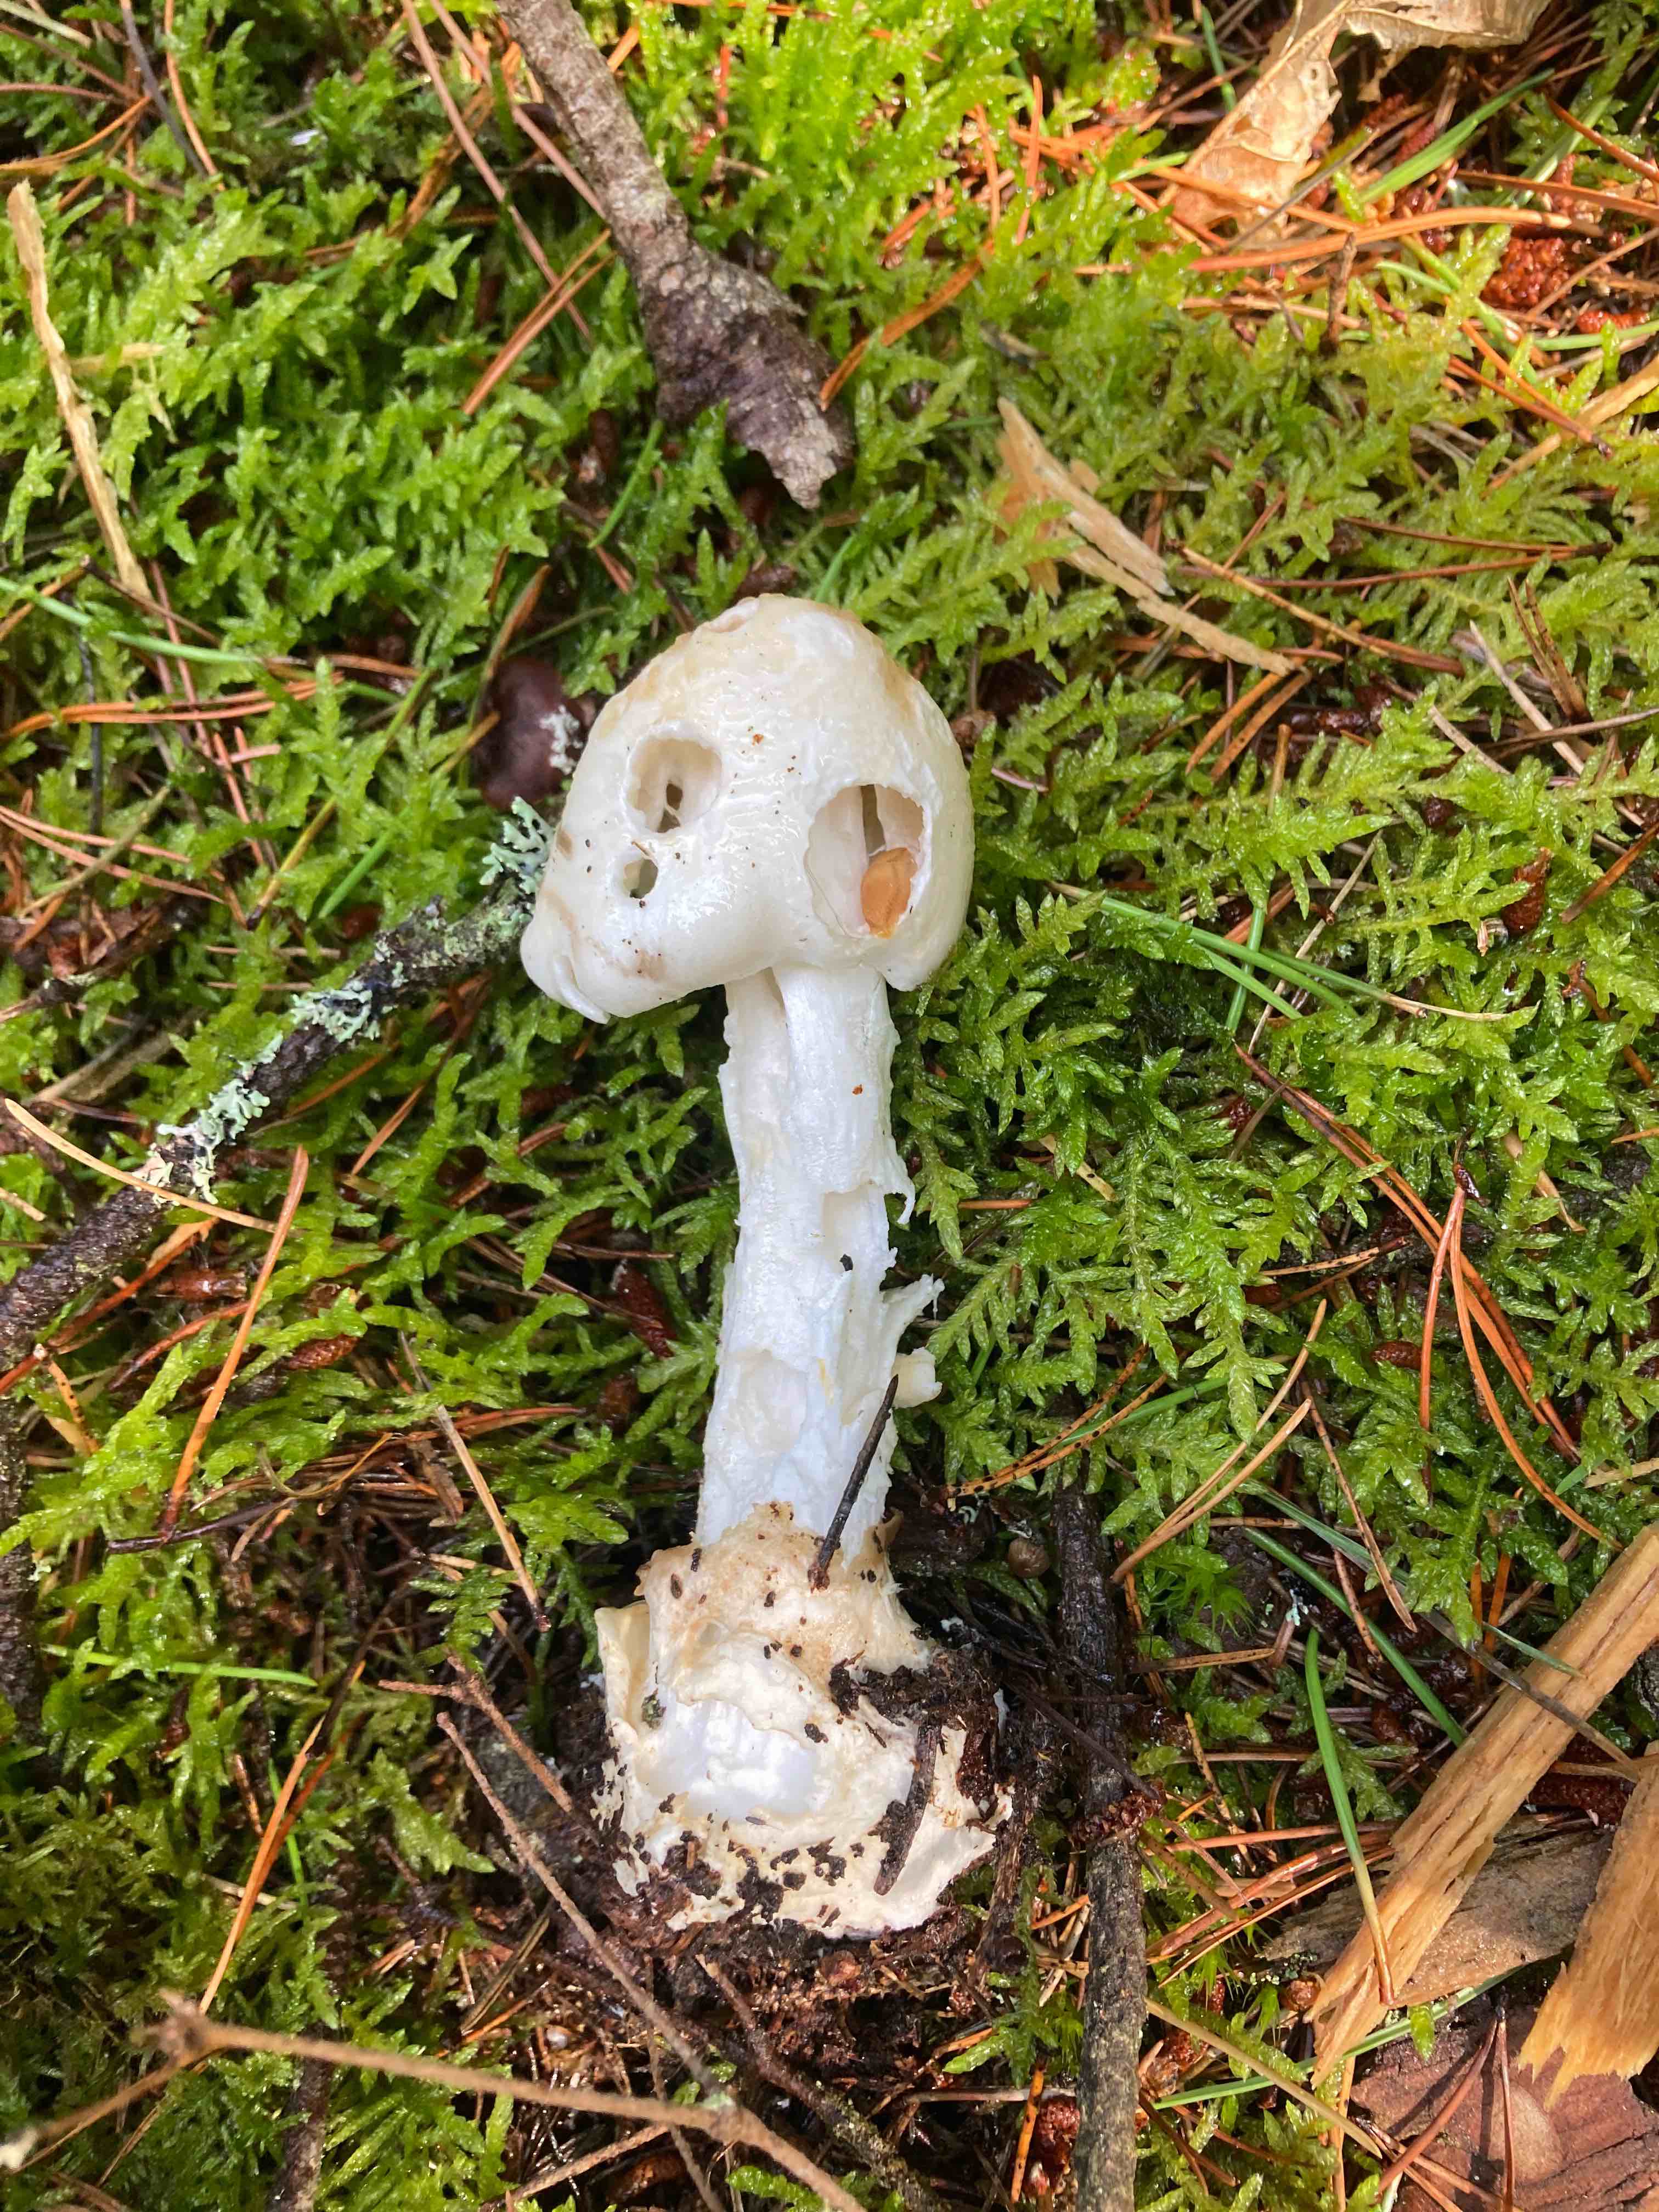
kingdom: Fungi
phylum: Basidiomycota
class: Agaricomycetes
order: Agaricales
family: Amanitaceae
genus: Amanita
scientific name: Amanita virosa
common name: snehvid fluesvamp
